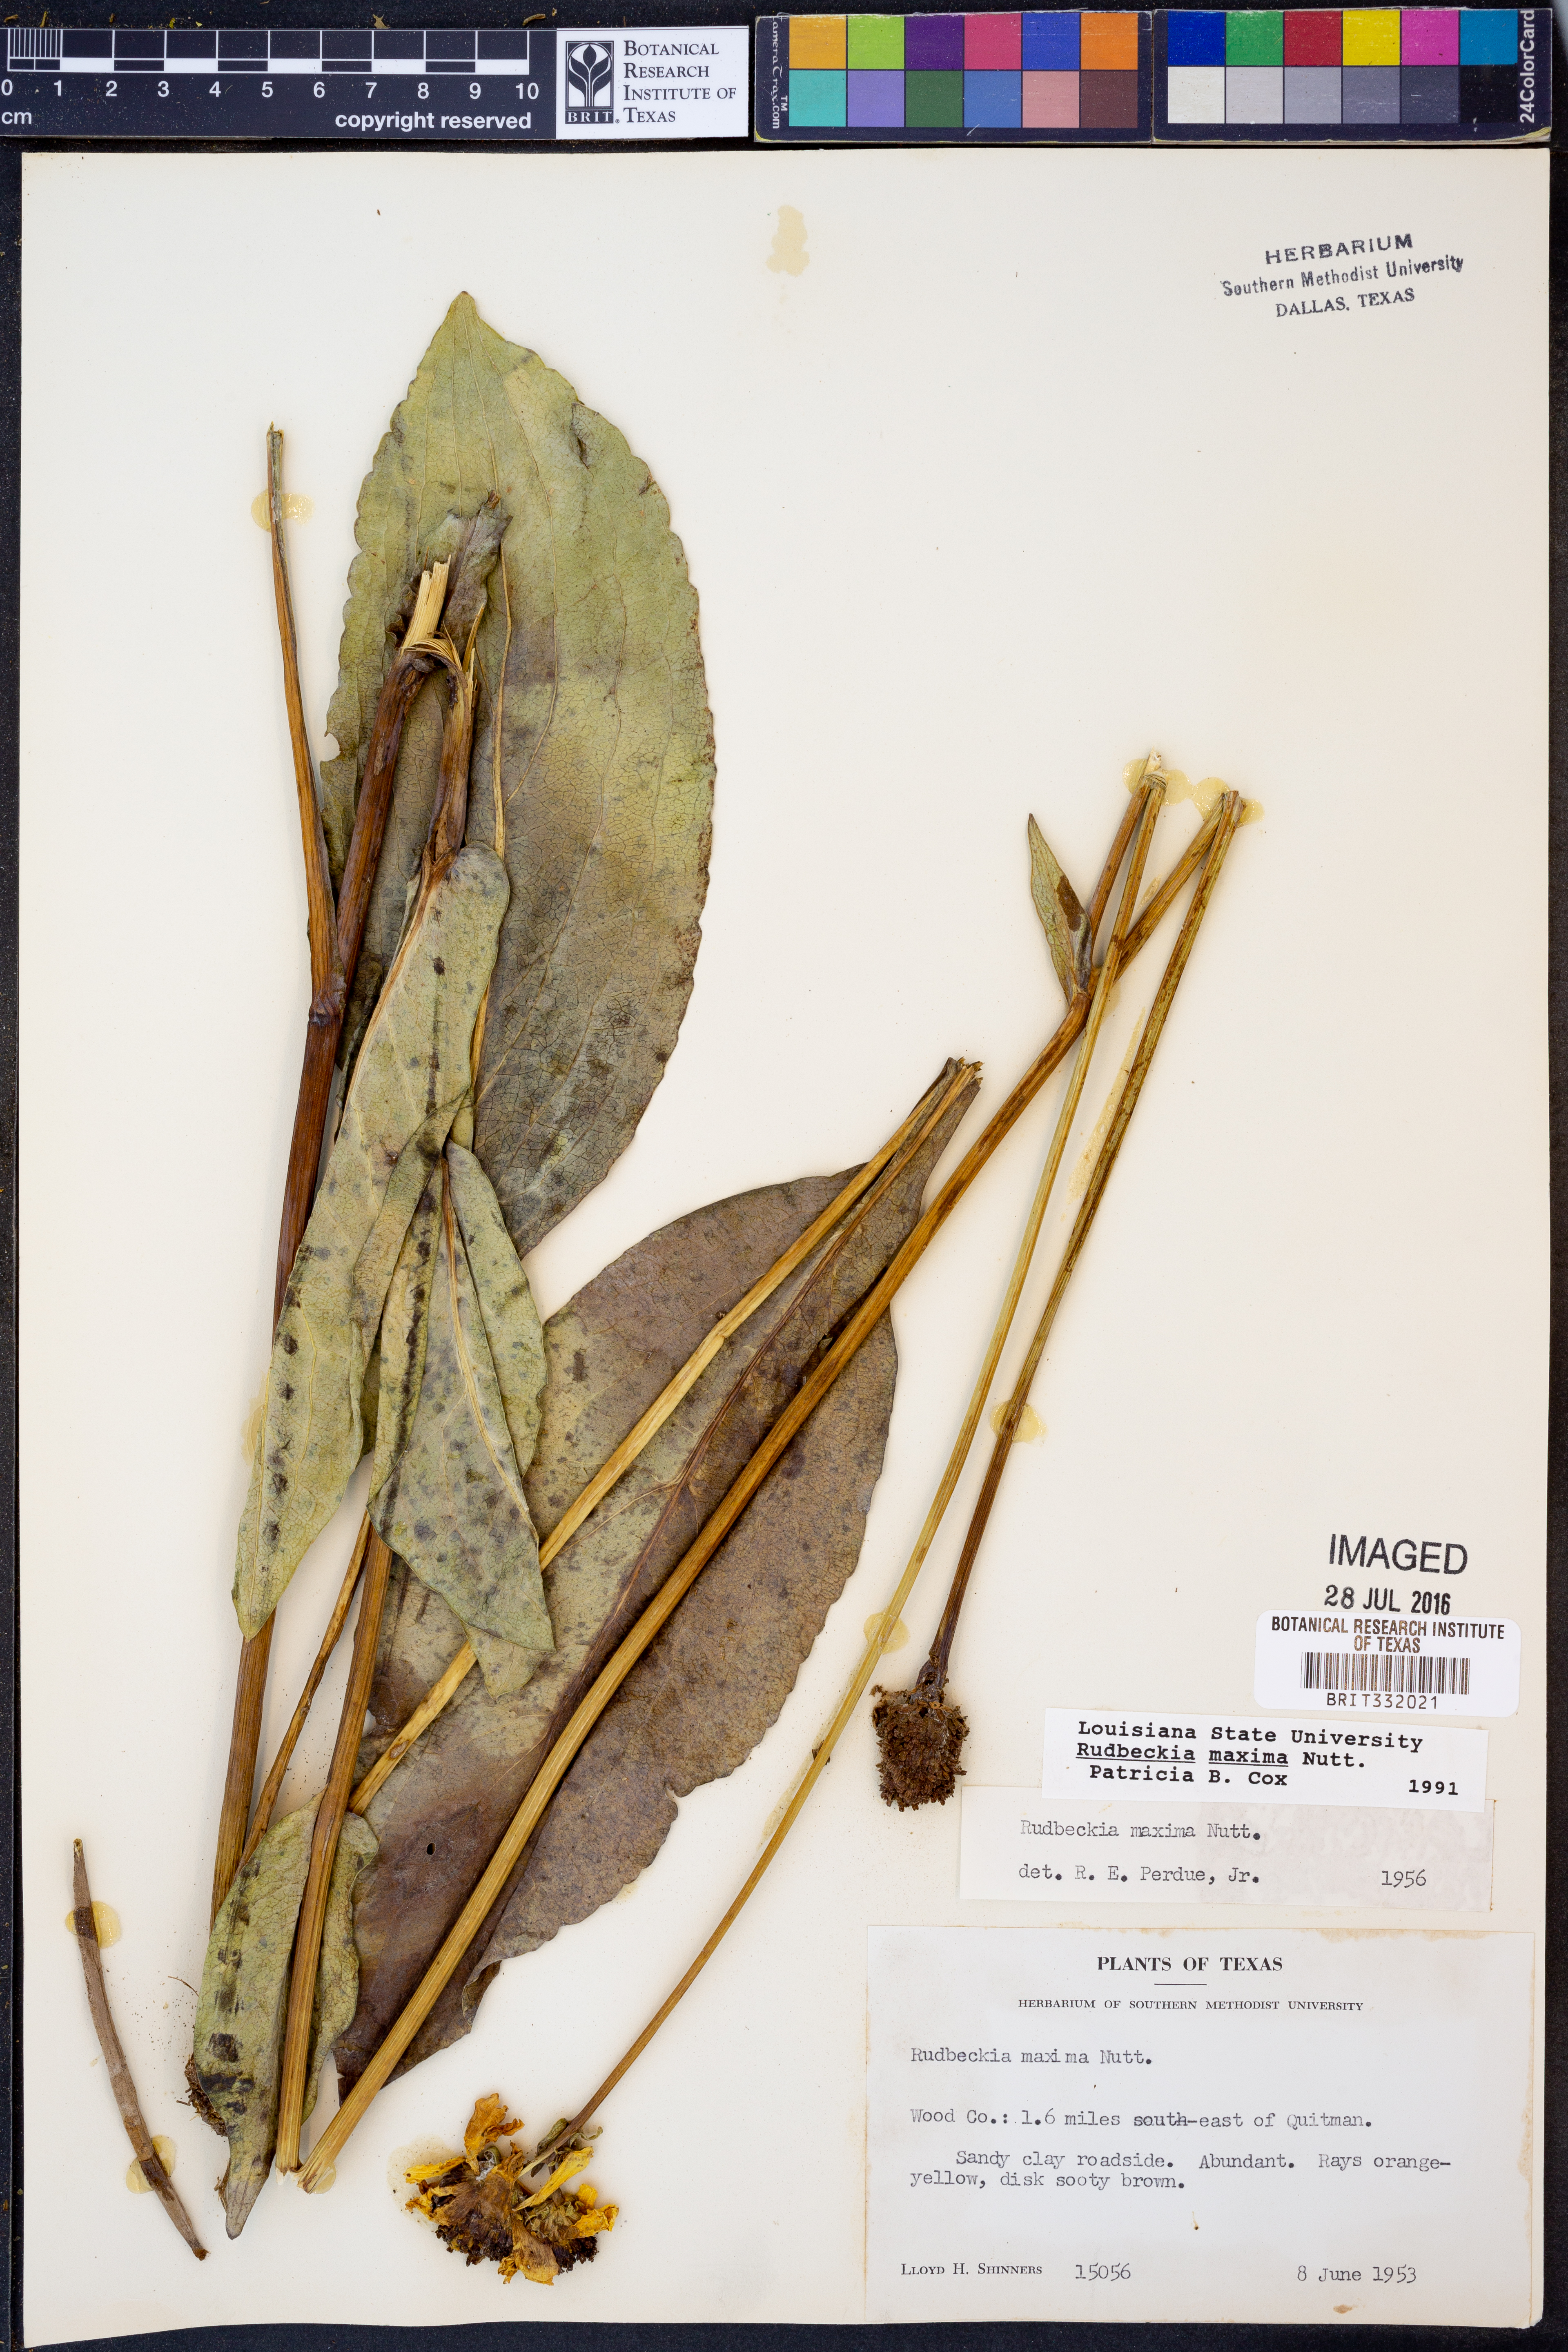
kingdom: Plantae
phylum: Tracheophyta
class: Magnoliopsida
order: Asterales
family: Asteraceae
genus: Rudbeckia
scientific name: Rudbeckia maxima
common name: Cabbage coneflower
